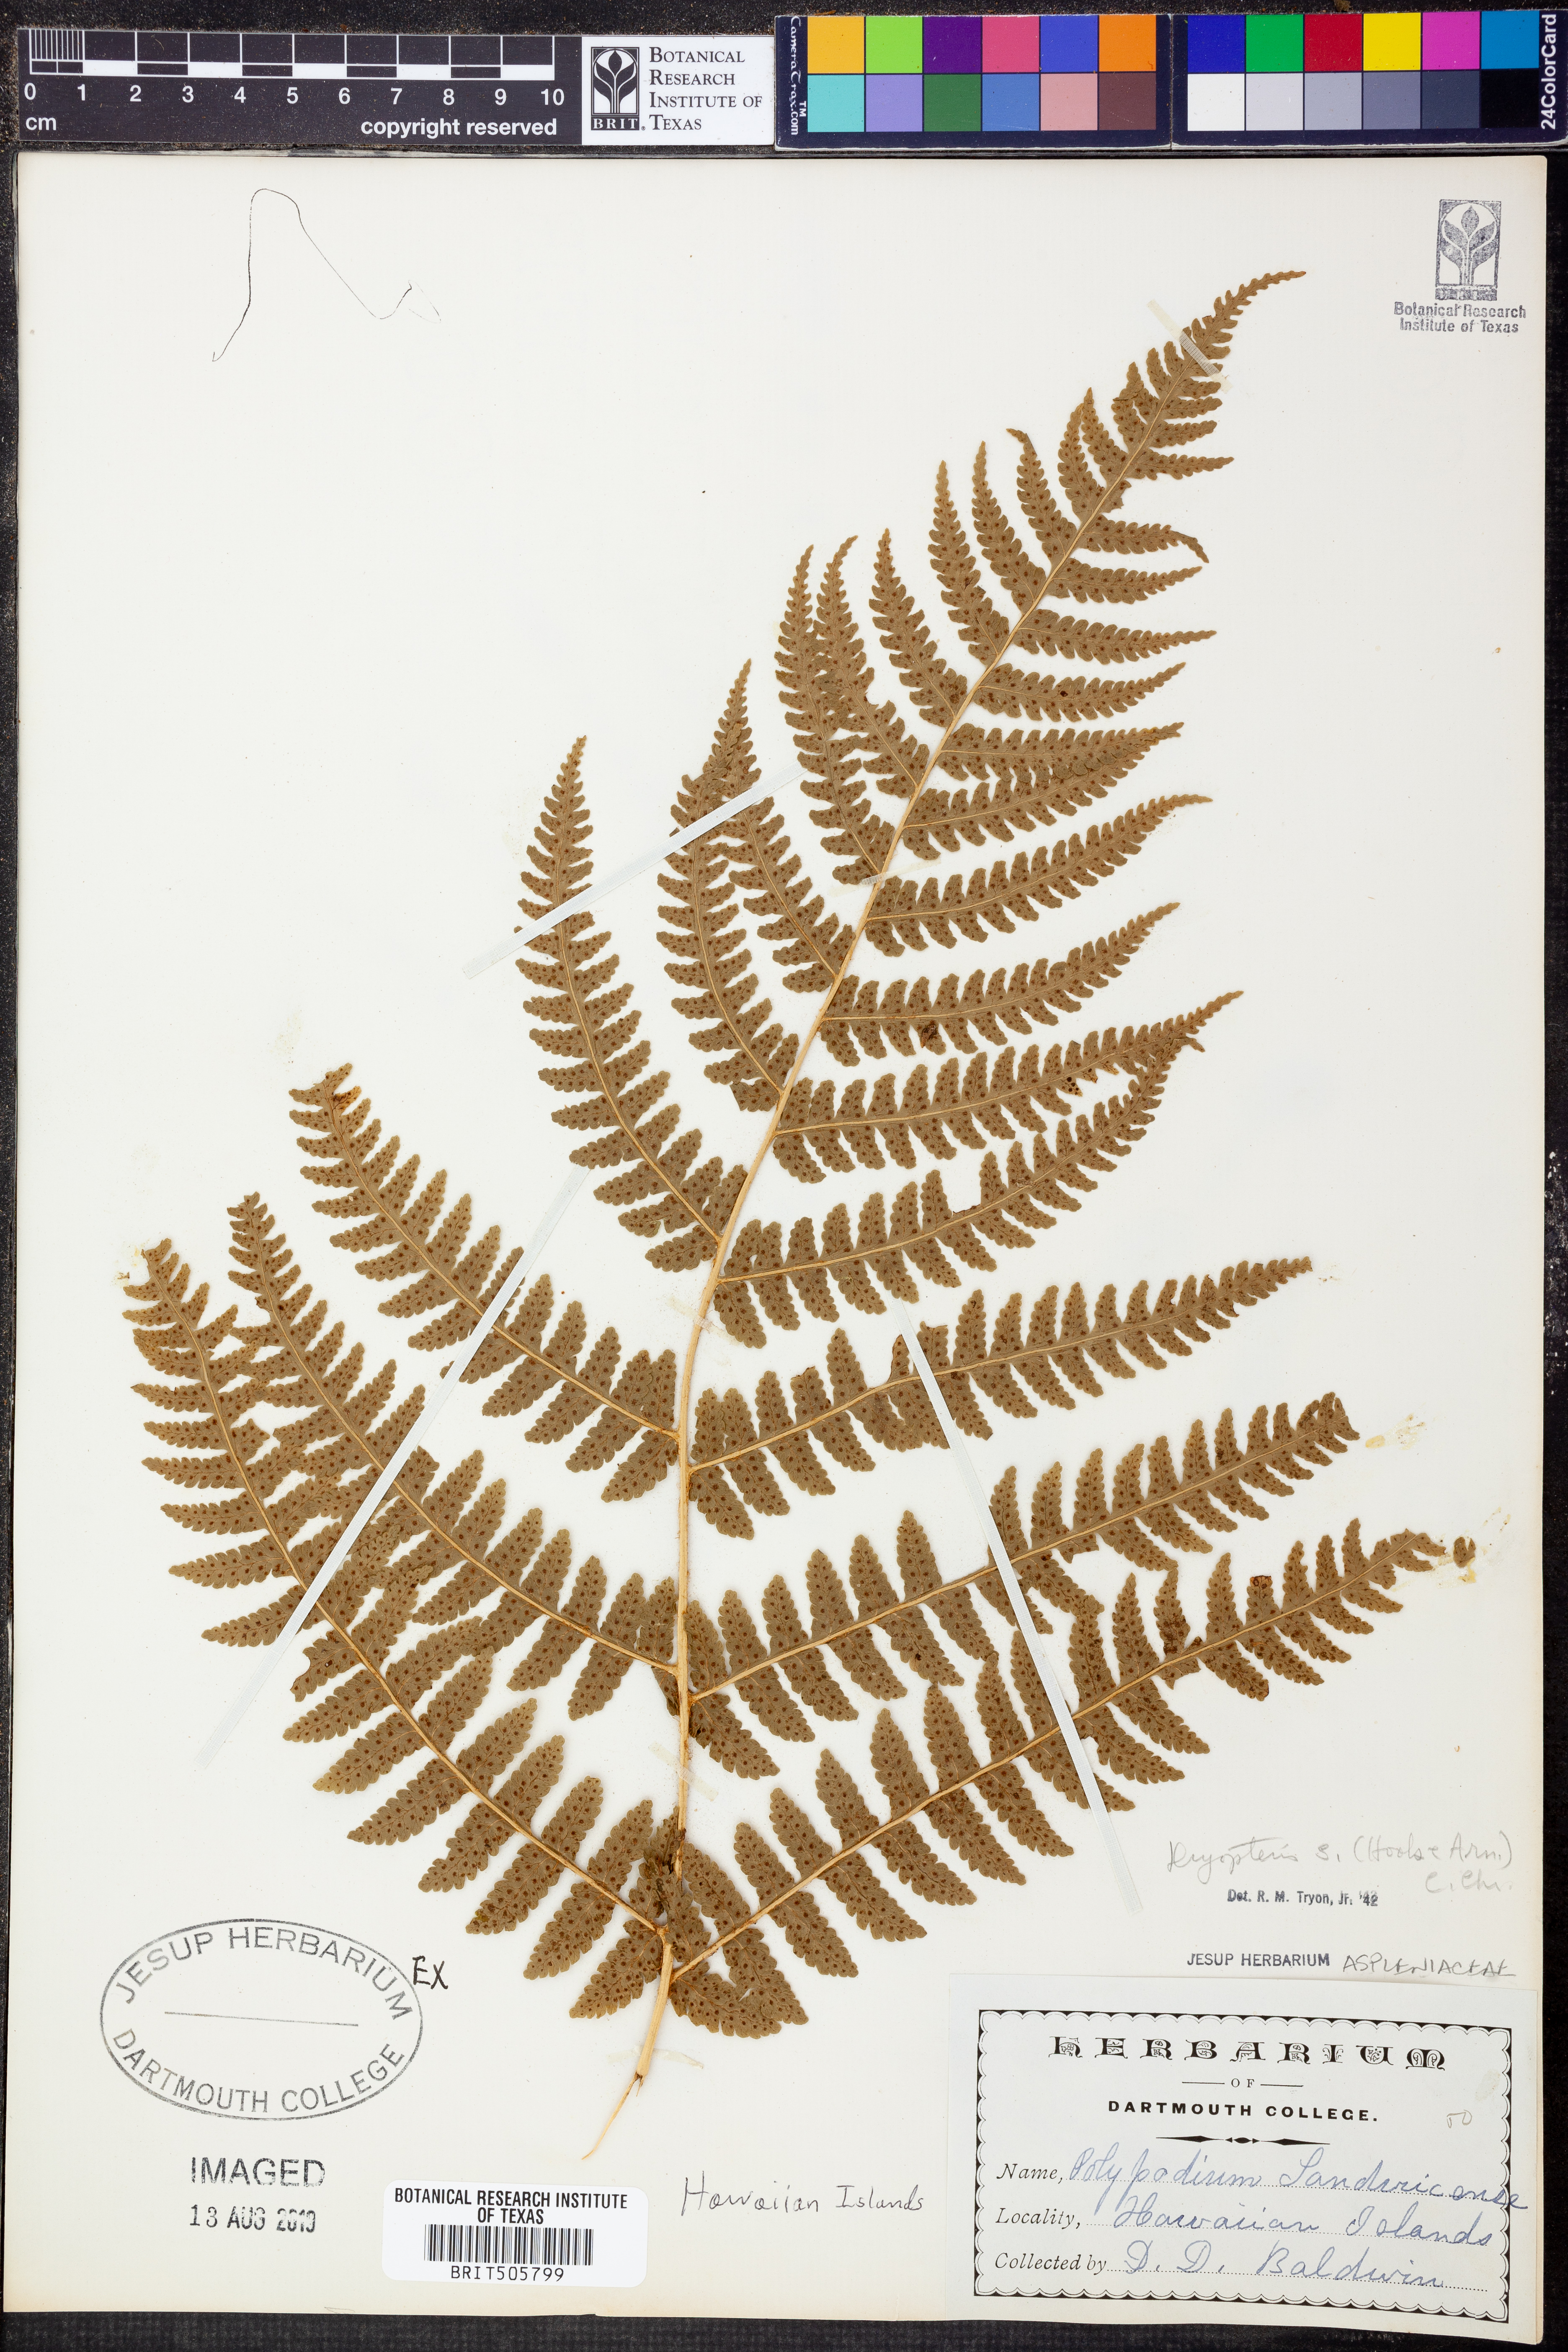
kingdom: Plantae
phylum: Tracheophyta
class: Polypodiopsida
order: Polypodiales
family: Dryopteridaceae
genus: Dryopteris
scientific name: Dryopteris sandwicensis
